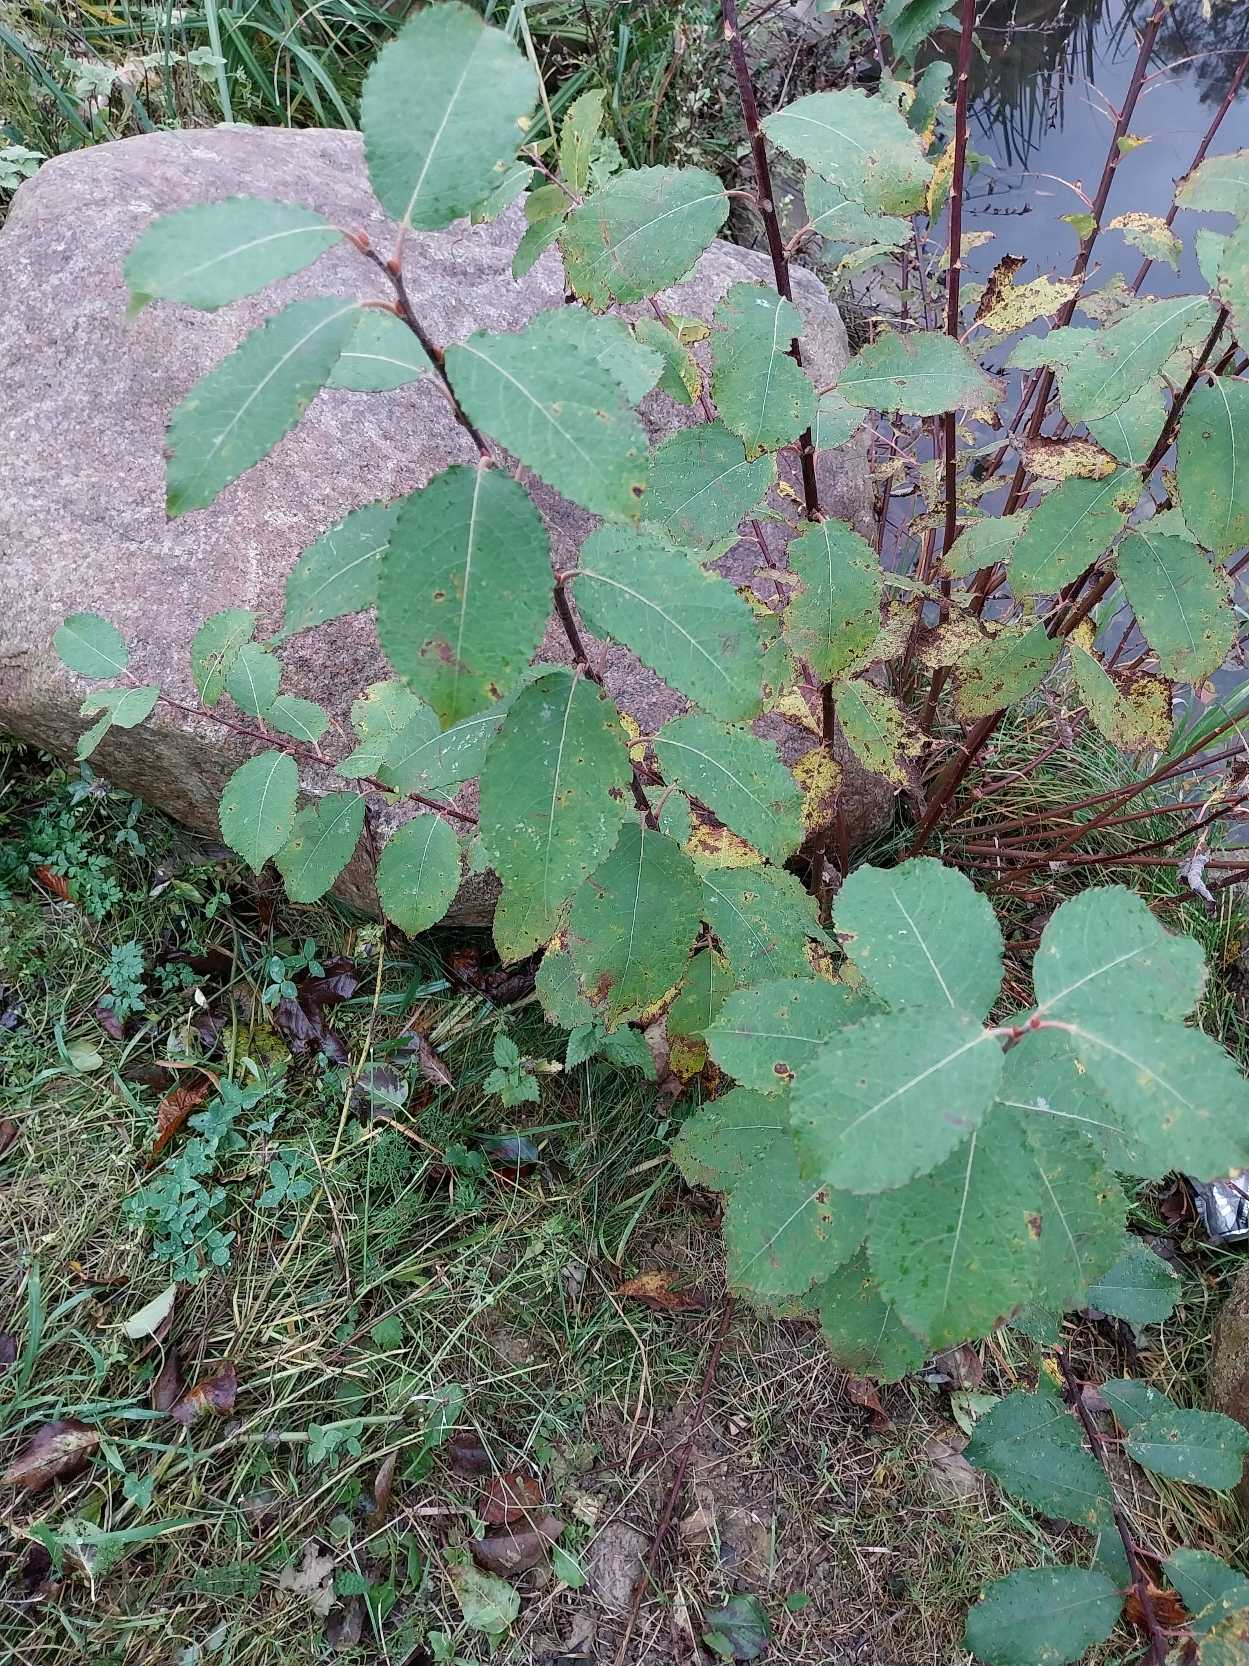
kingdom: Plantae
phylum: Tracheophyta
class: Magnoliopsida
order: Malpighiales
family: Salicaceae
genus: Salix
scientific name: Salix caprea
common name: Selje-pil
